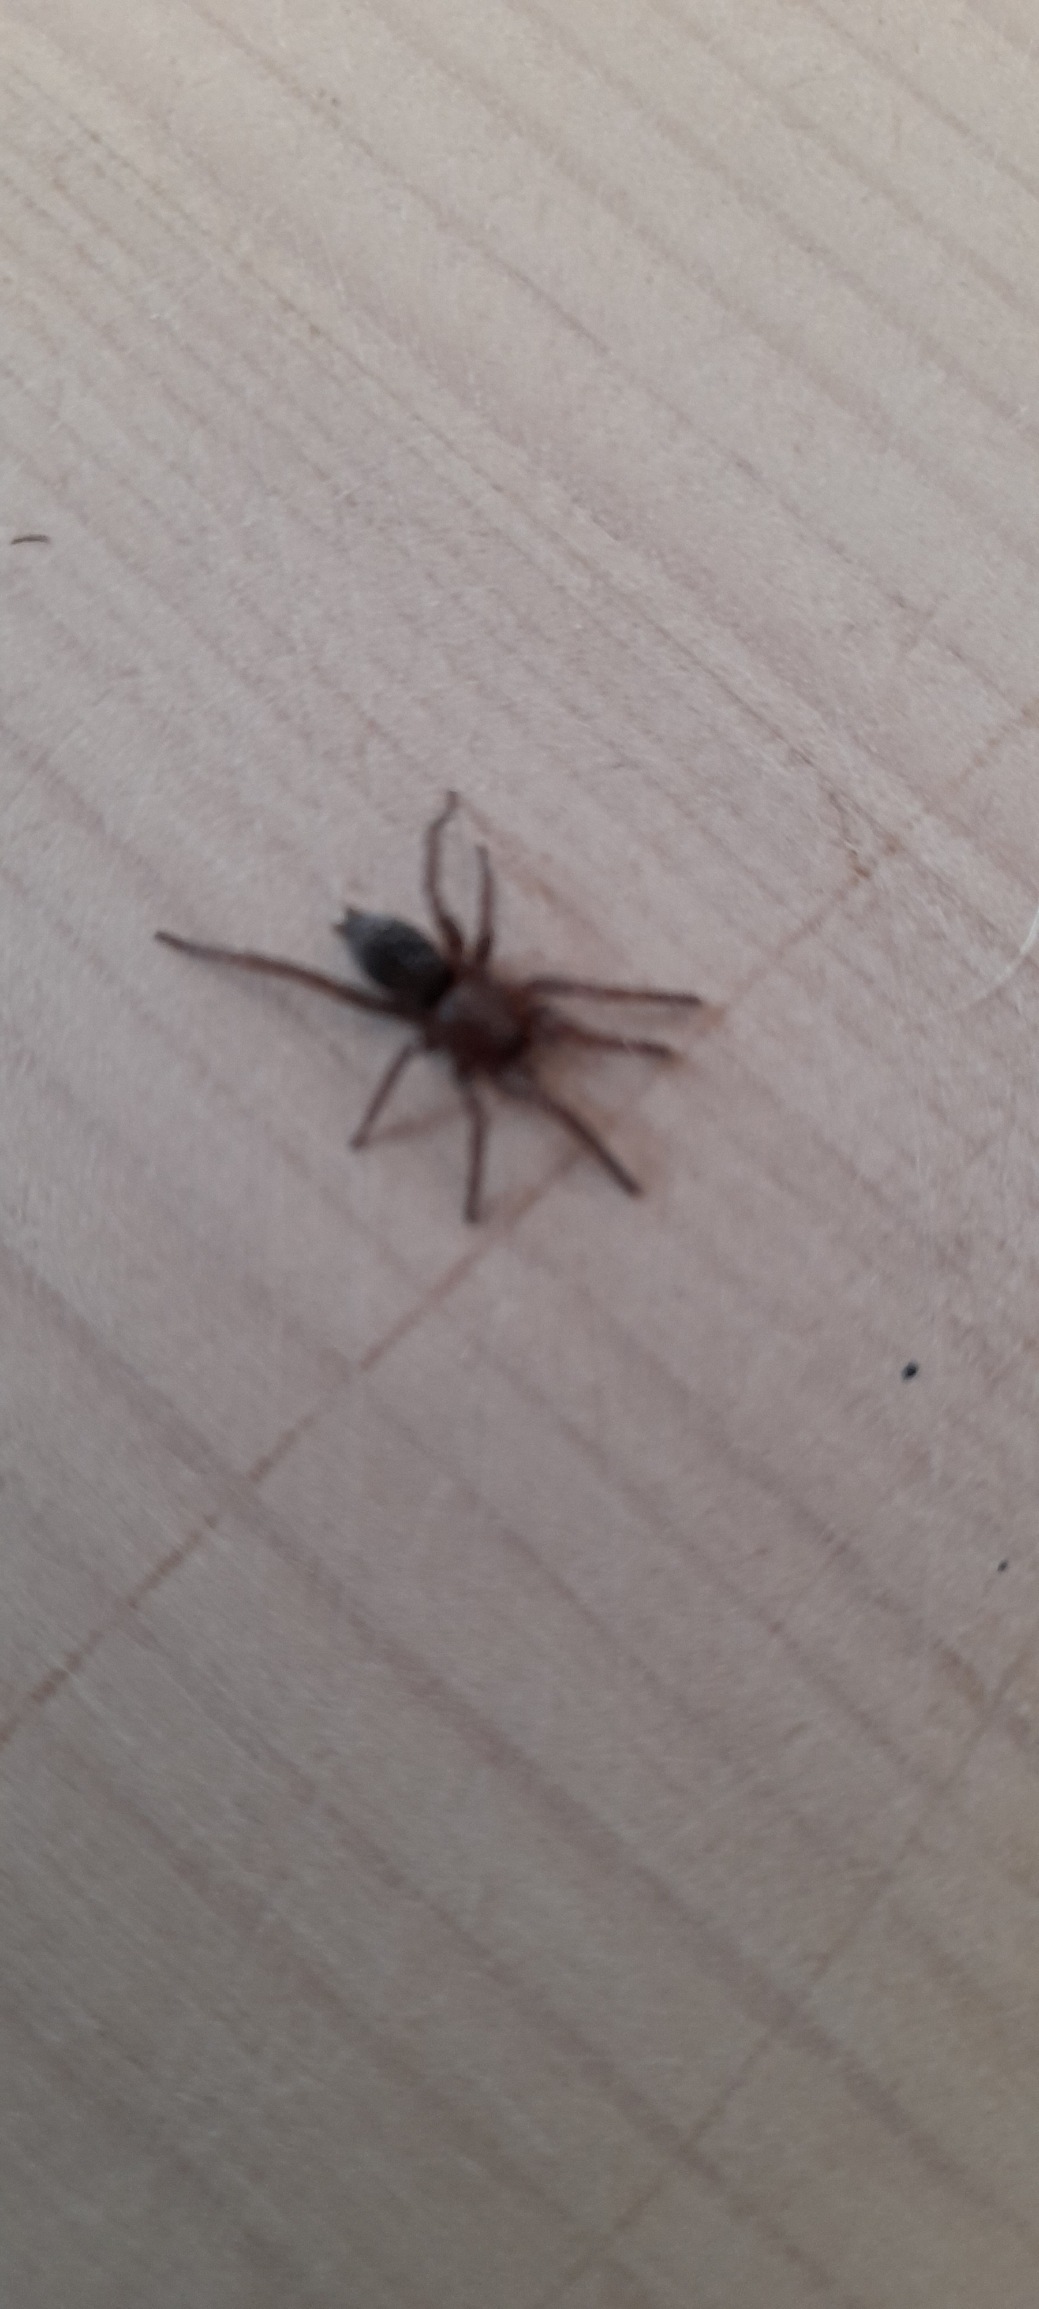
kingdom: Animalia
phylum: Arthropoda
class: Arachnida
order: Araneae
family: Gnaphosidae
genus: Scotophaeus
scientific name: Scotophaeus
